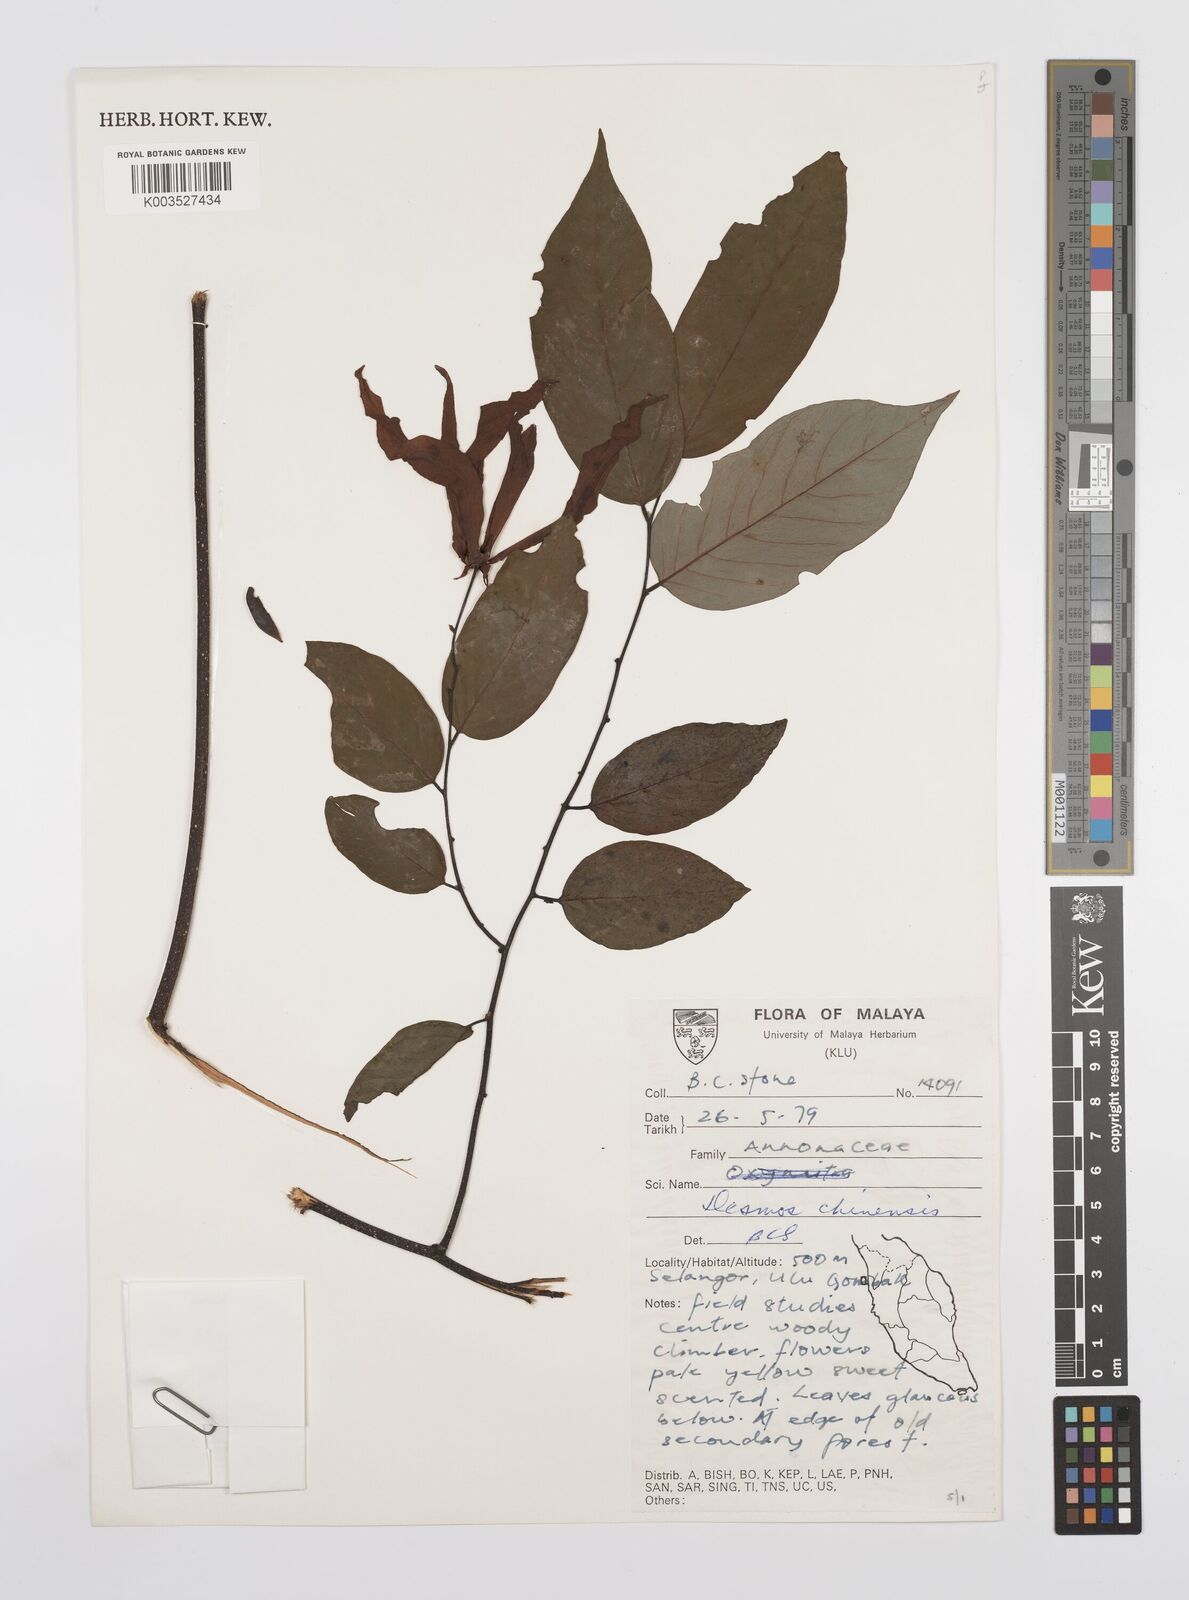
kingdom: Plantae
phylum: Tracheophyta
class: Magnoliopsida
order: Magnoliales
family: Annonaceae
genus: Desmos
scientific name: Desmos chinensis
